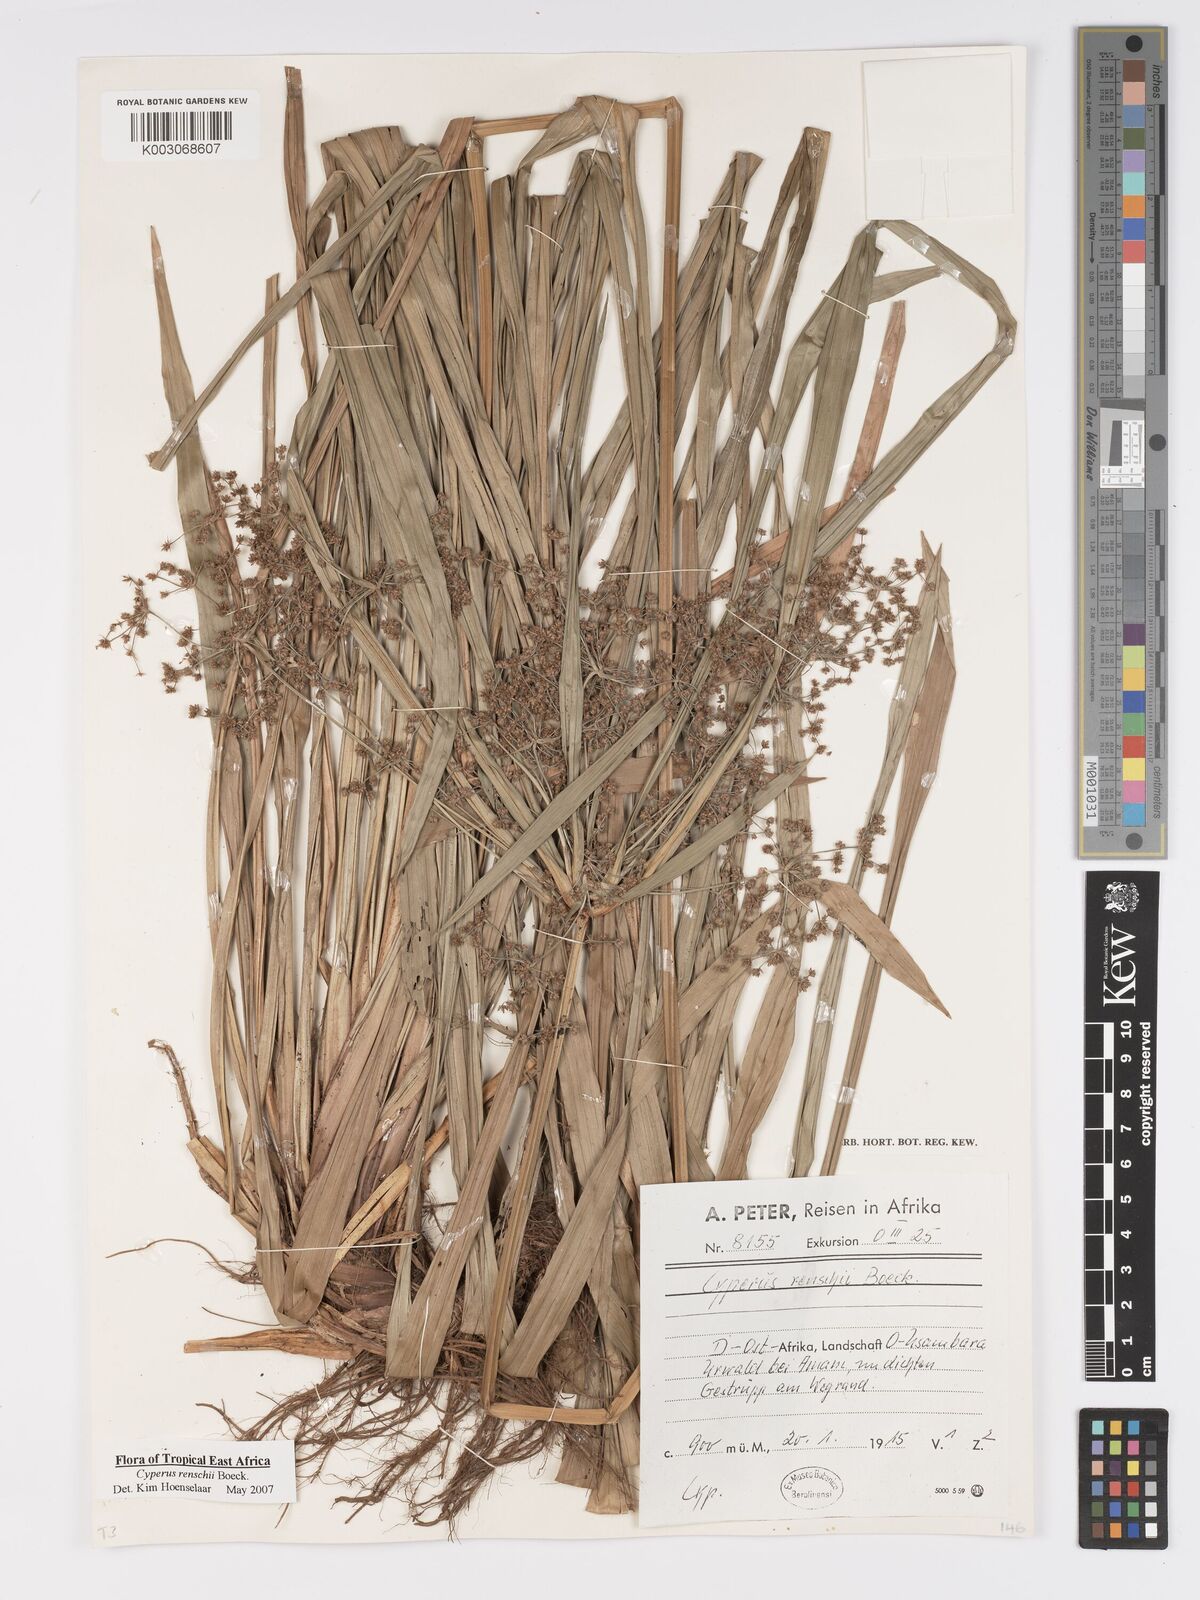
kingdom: Plantae
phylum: Tracheophyta
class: Liliopsida
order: Poales
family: Cyperaceae
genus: Cyperus
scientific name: Cyperus renschii
